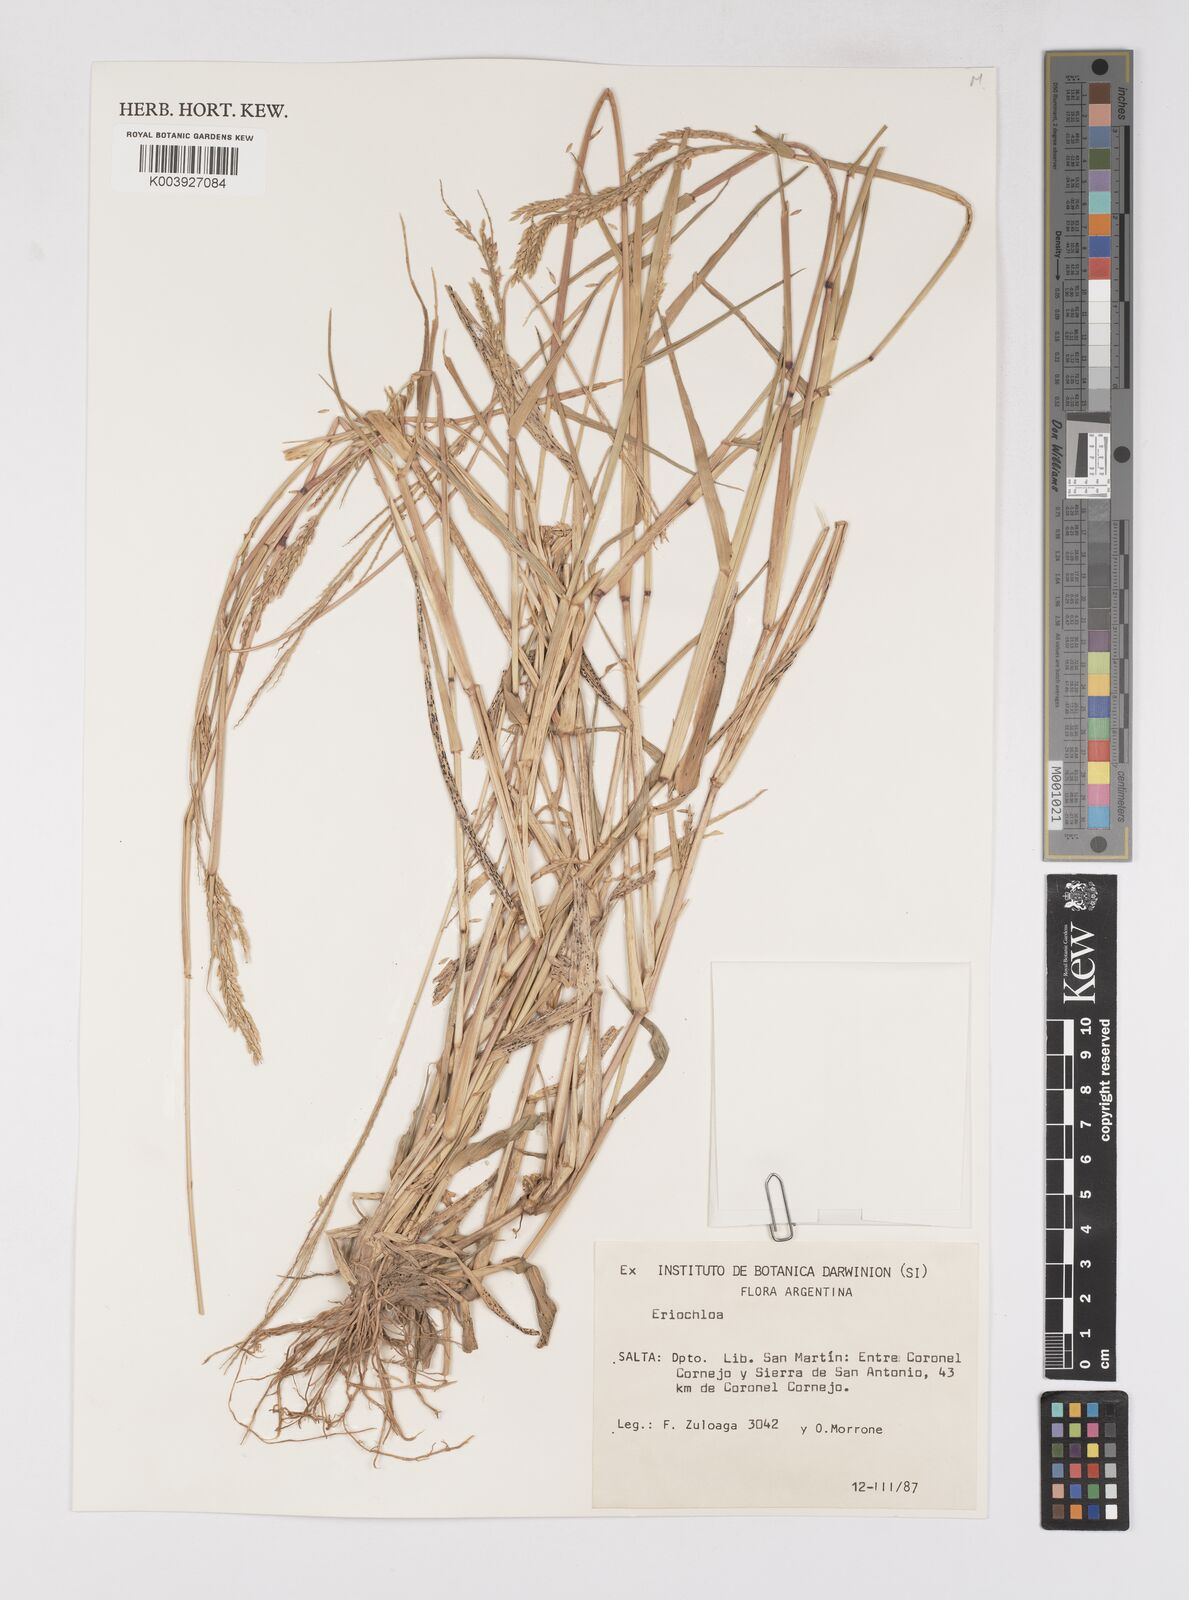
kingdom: Plantae
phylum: Tracheophyta
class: Liliopsida
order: Poales
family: Poaceae
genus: Eriochloa
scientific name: Eriochloa punctata
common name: Louisiana cupgrass
